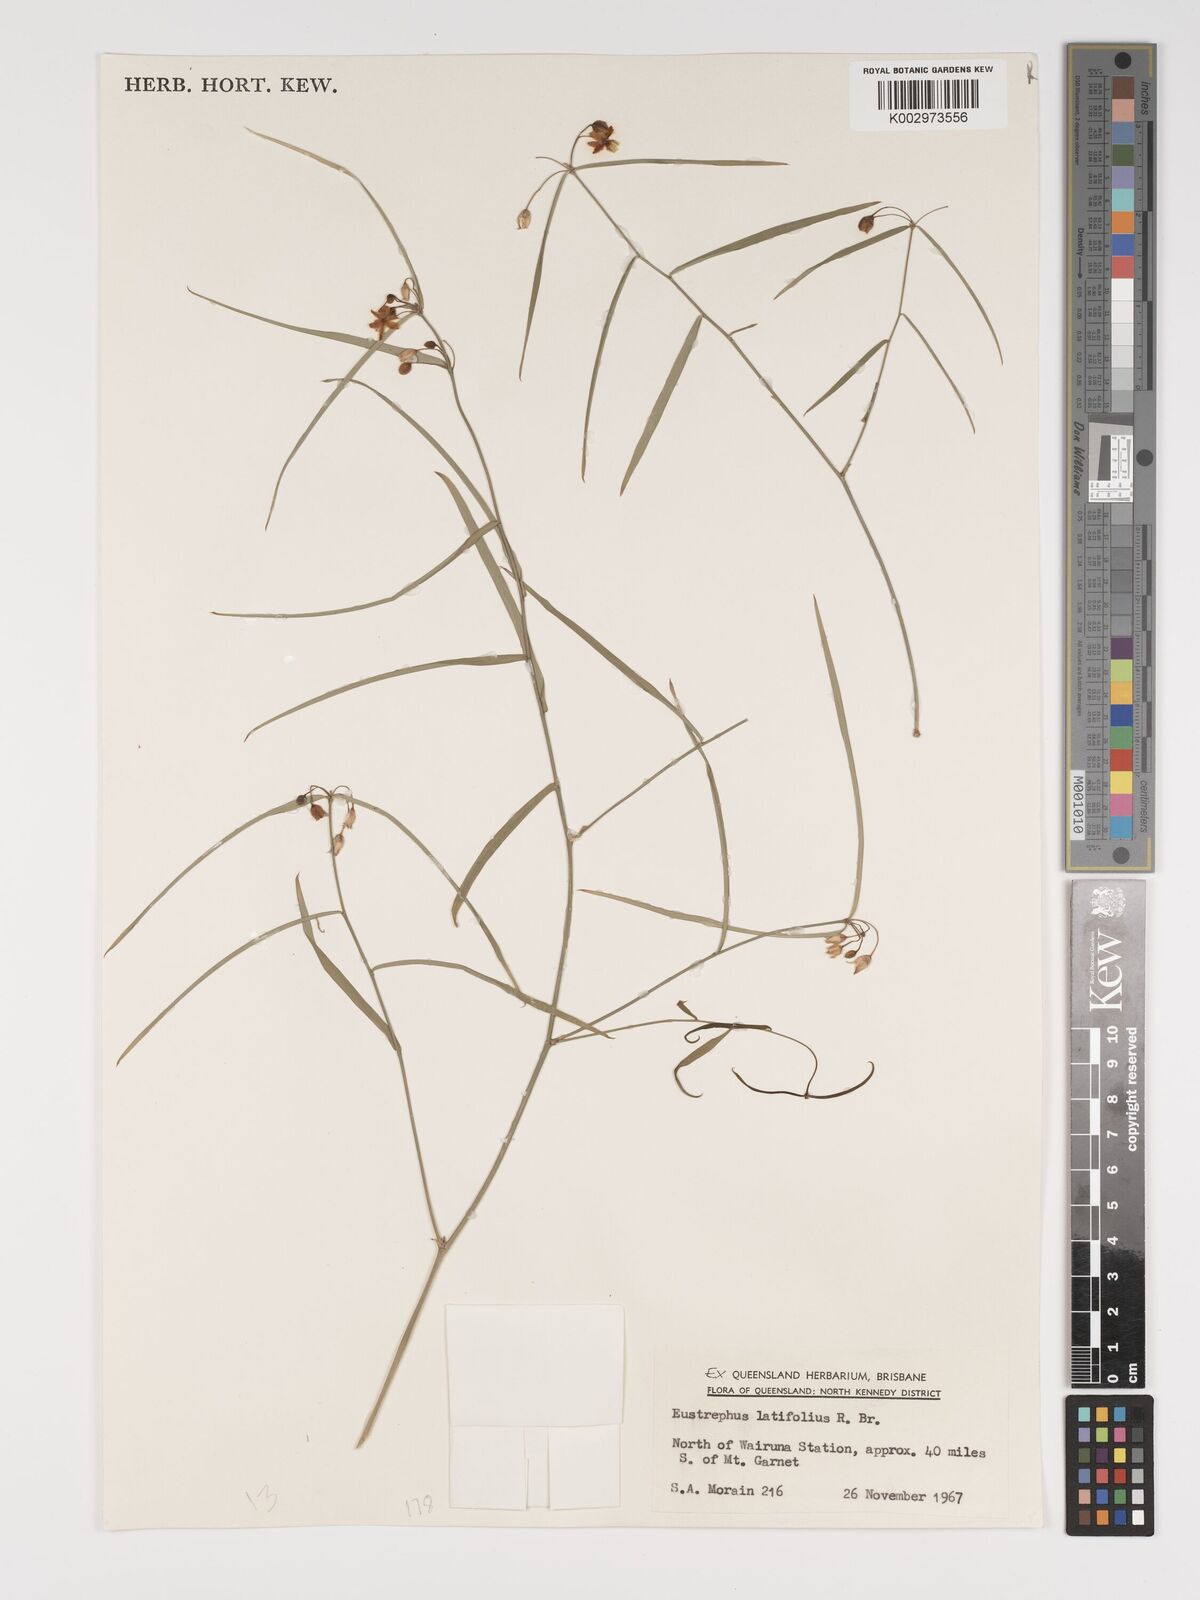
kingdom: Plantae
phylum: Tracheophyta
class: Liliopsida
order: Asparagales
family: Asparagaceae
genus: Eustrephus
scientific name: Eustrephus latifolius
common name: Orangevine
